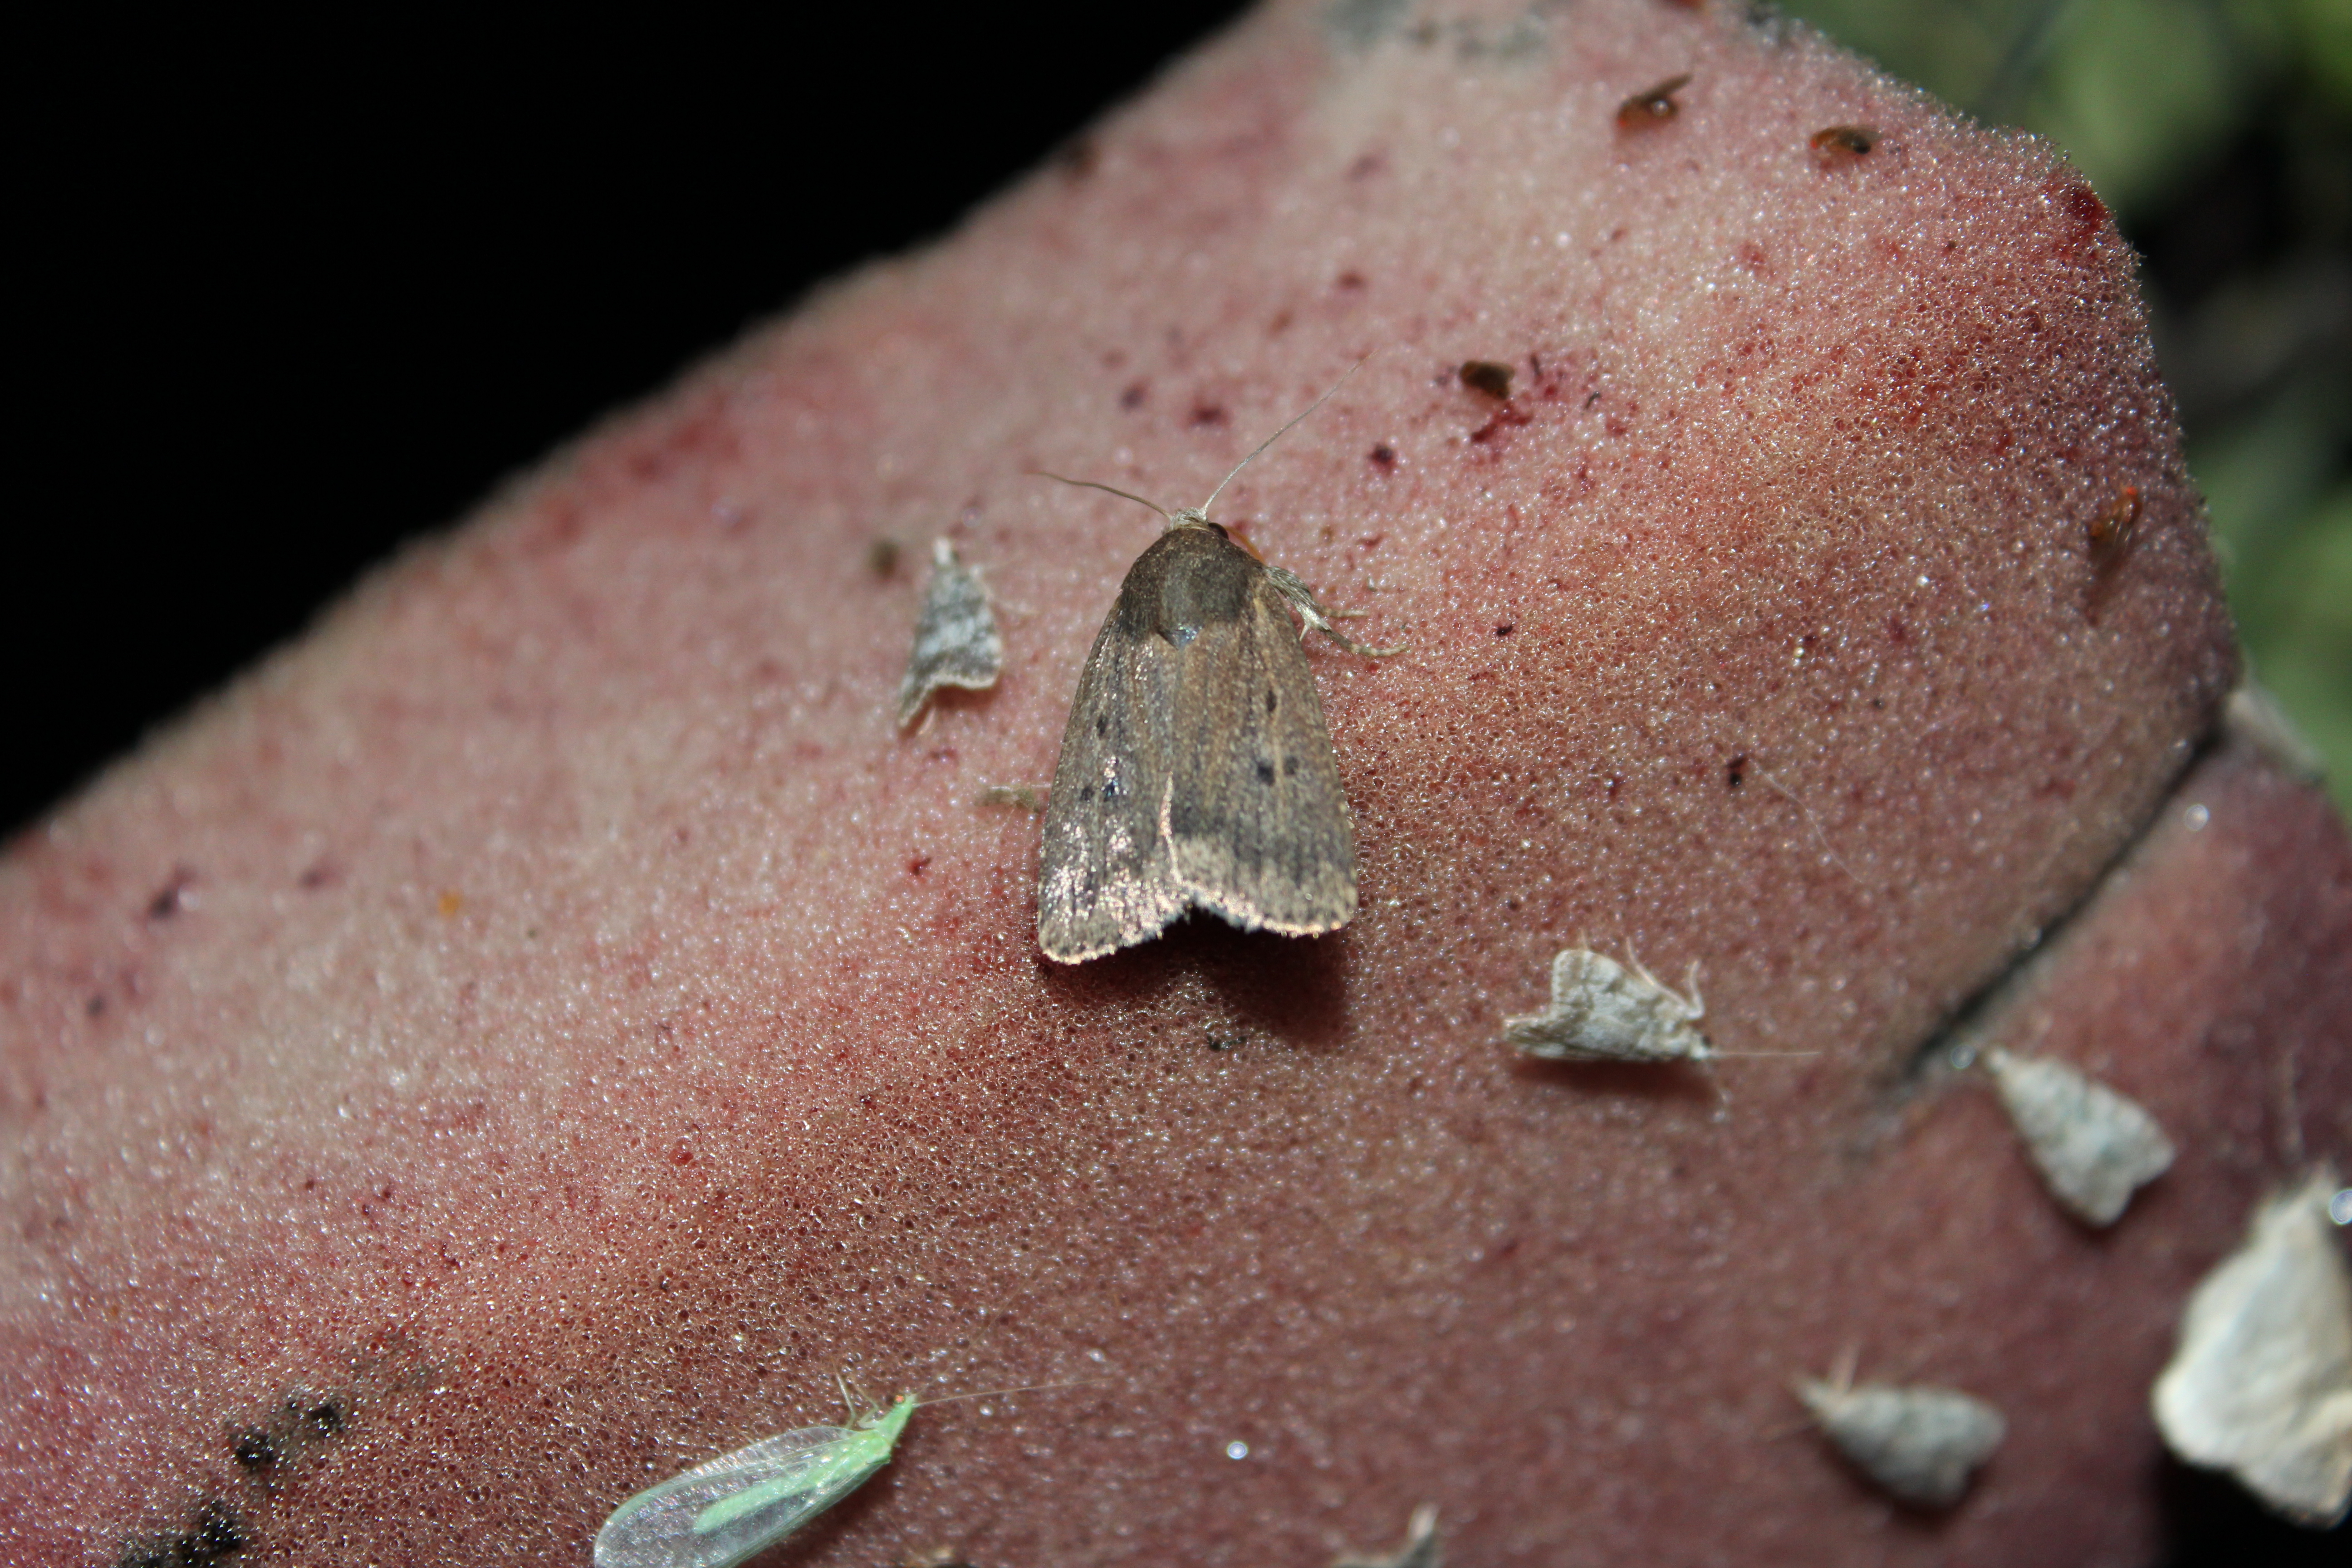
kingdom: Animalia
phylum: Arthropoda
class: Insecta
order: Lepidoptera
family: Noctuidae
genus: Amphipyra
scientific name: Amphipyra tragopoginis
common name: Mouse moth
